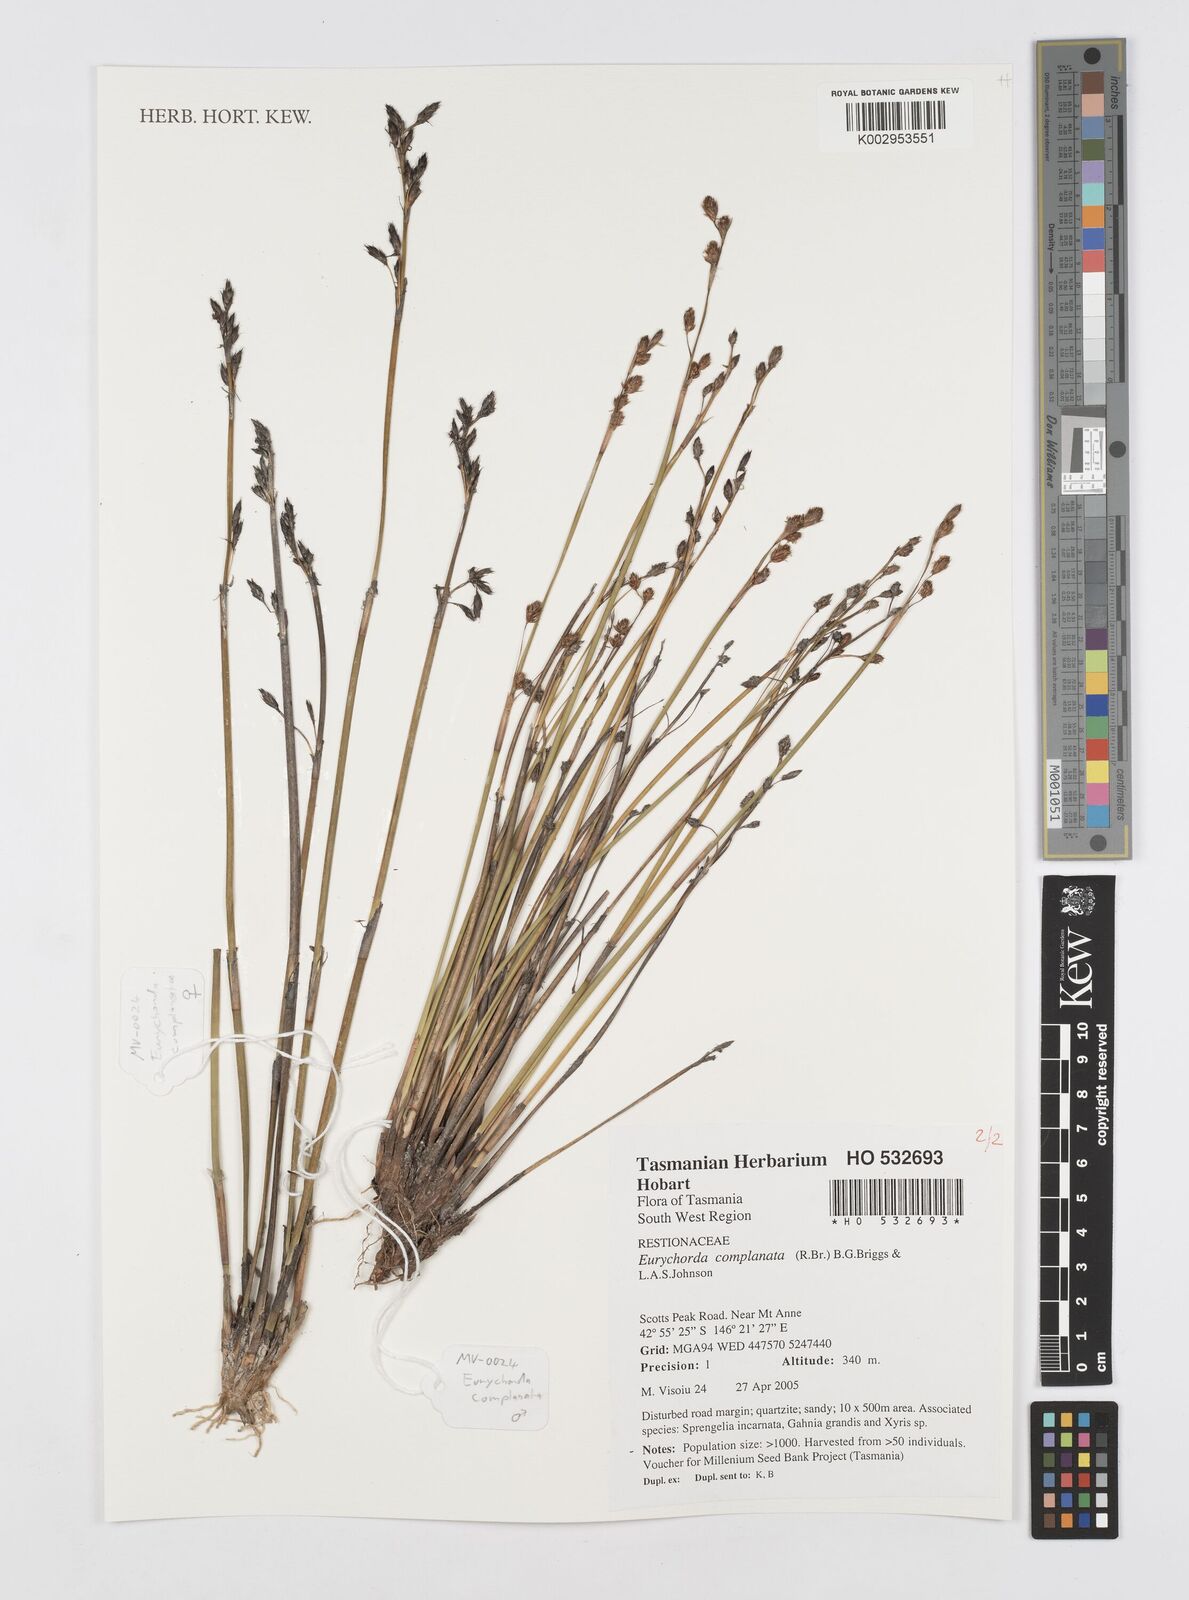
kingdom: Plantae
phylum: Tracheophyta
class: Liliopsida
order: Poales
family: Restionaceae
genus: Eurychorda
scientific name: Eurychorda complanata
